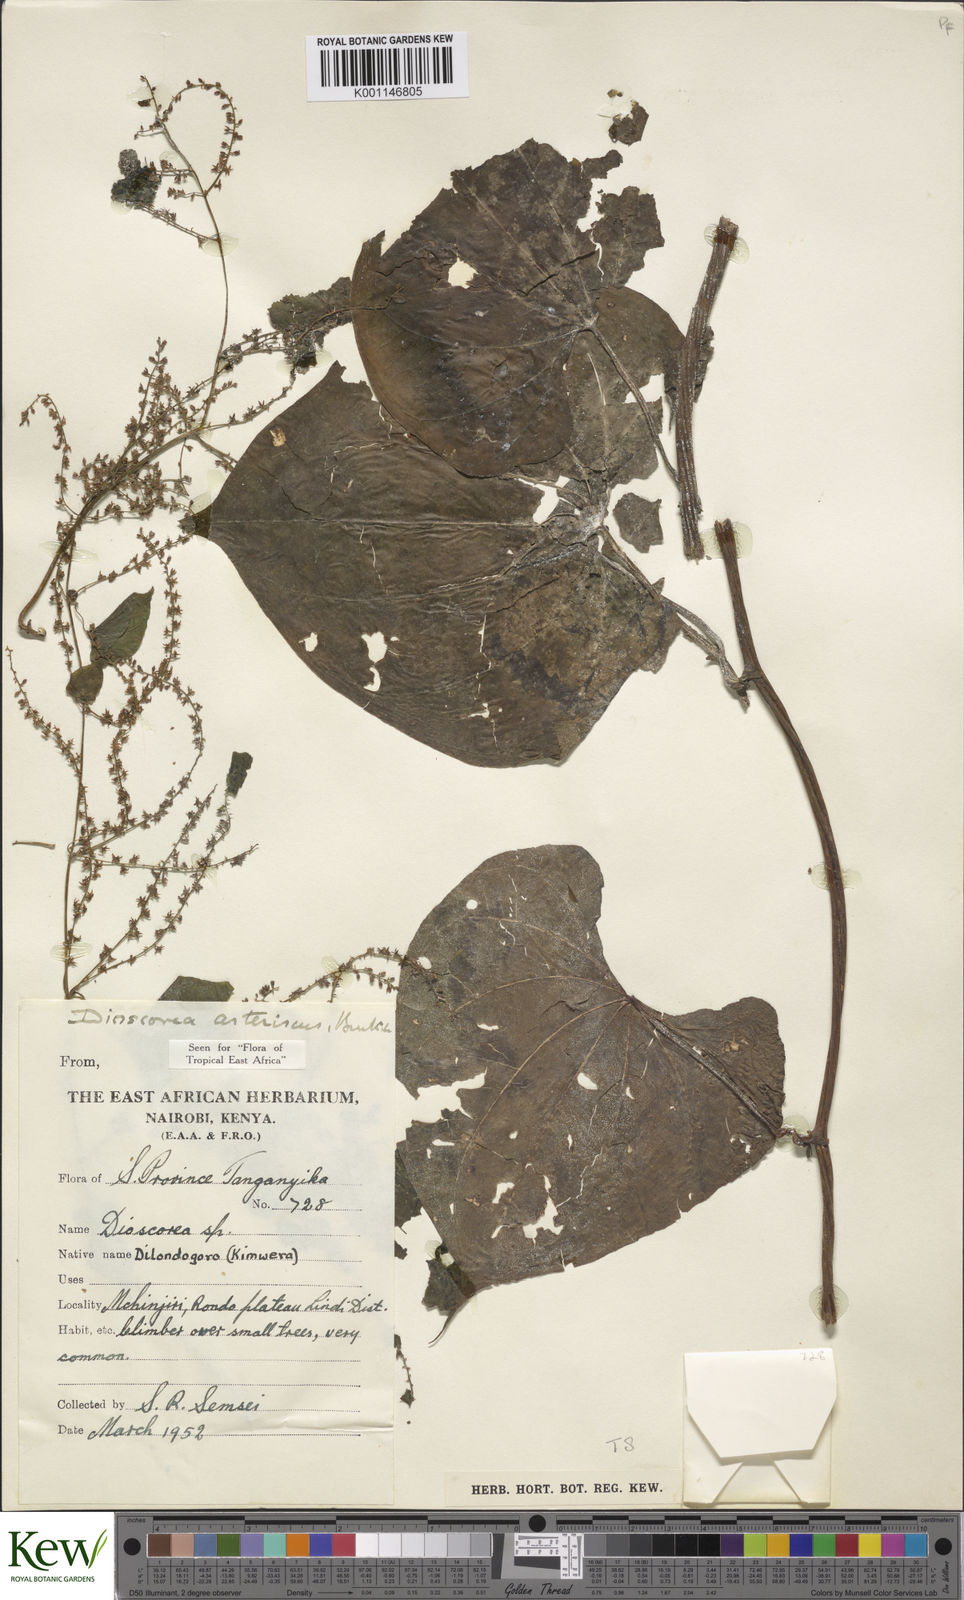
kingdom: Plantae
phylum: Tracheophyta
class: Liliopsida
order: Dioscoreales
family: Dioscoreaceae
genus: Dioscorea
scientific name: Dioscorea asteriscus
